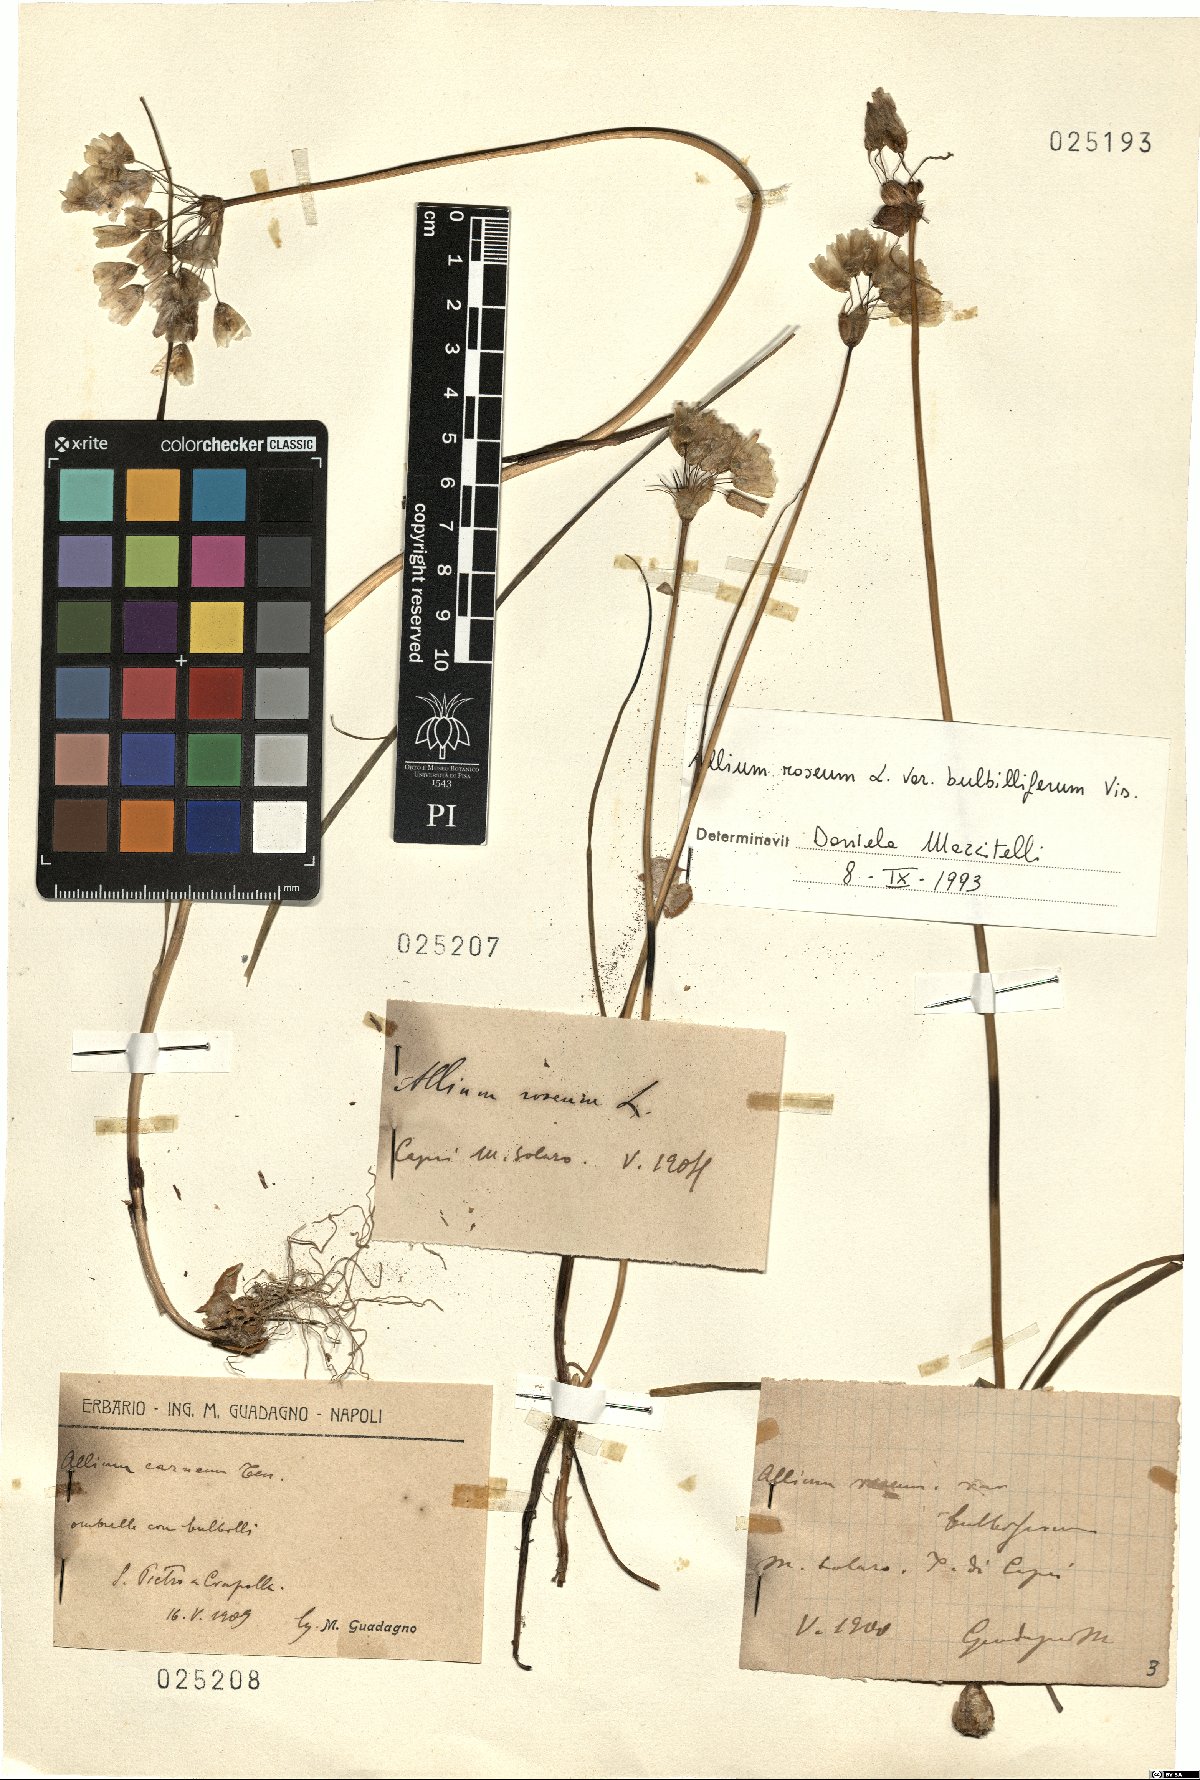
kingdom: Plantae
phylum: Tracheophyta
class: Liliopsida
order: Asparagales
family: Amaryllidaceae
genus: Allium
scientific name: Allium roseum
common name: Rosy garlic
